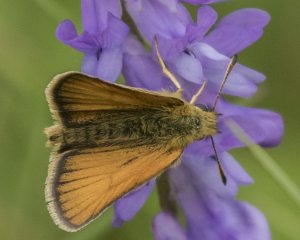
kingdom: Animalia
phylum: Arthropoda
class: Insecta
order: Lepidoptera
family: Hesperiidae
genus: Thymelicus
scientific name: Thymelicus lineola
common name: European Skipper
